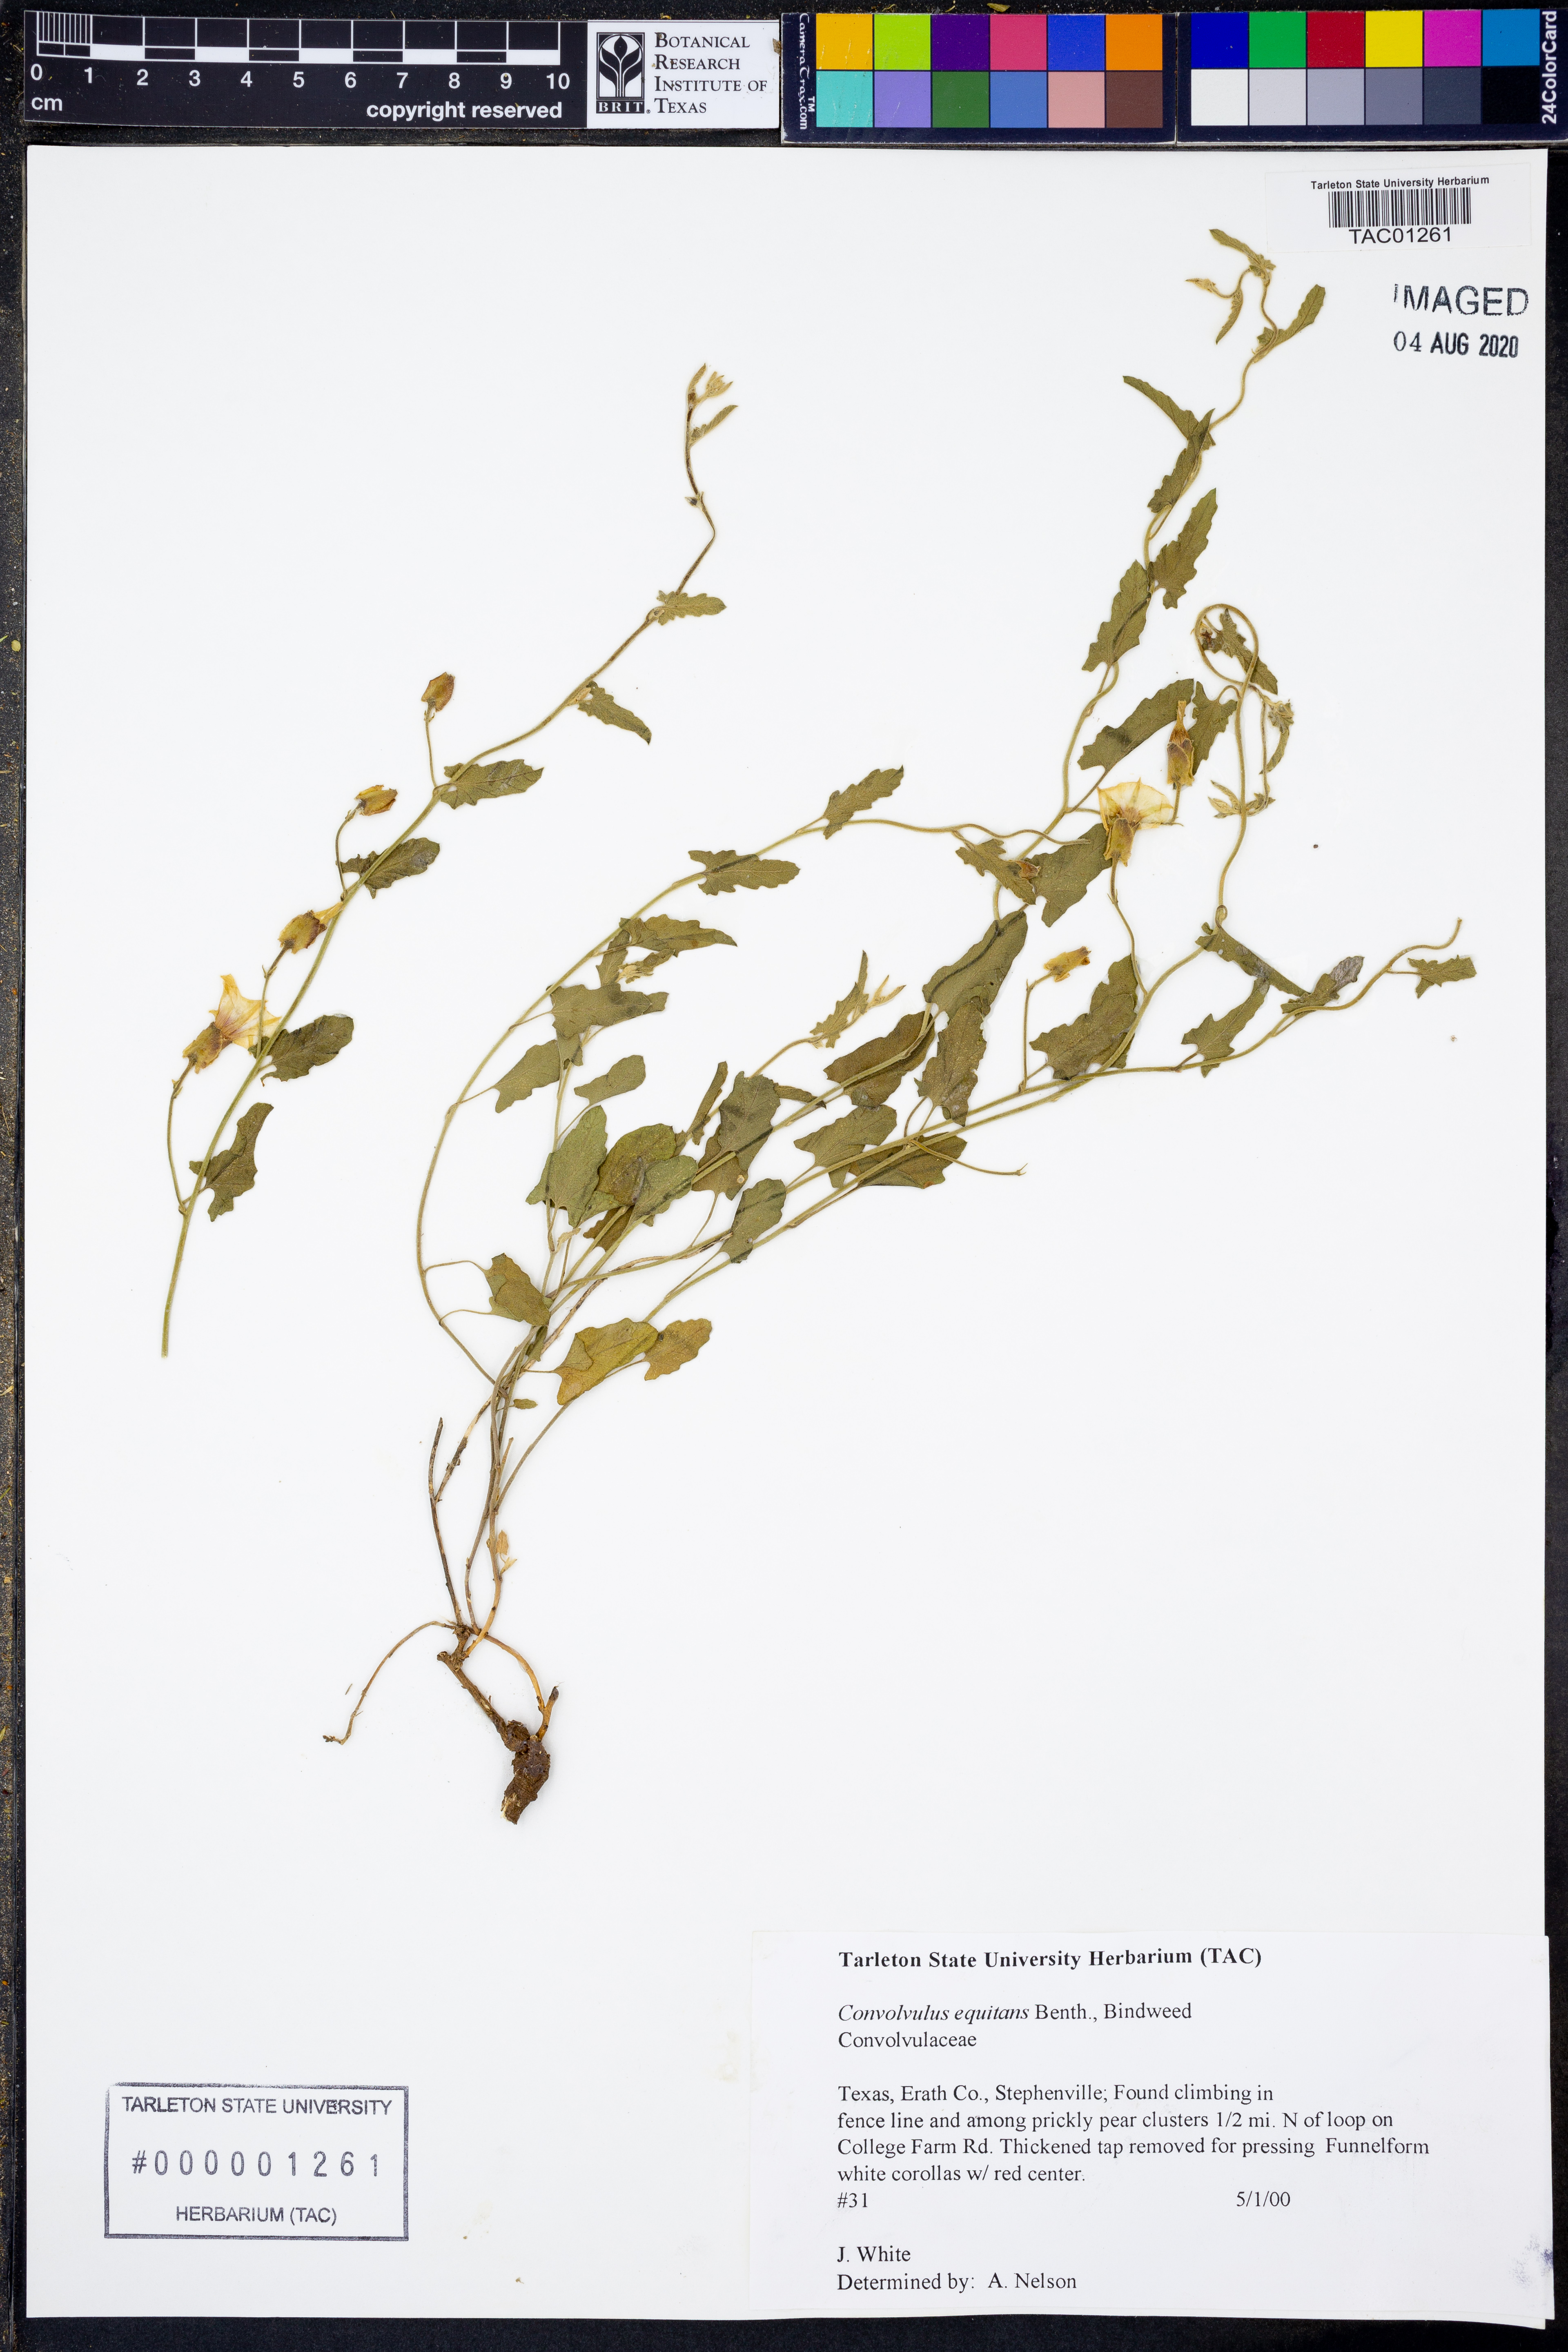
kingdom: Plantae
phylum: Tracheophyta
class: Magnoliopsida
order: Solanales
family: Convolvulaceae
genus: Convolvulus
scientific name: Convolvulus equitans
